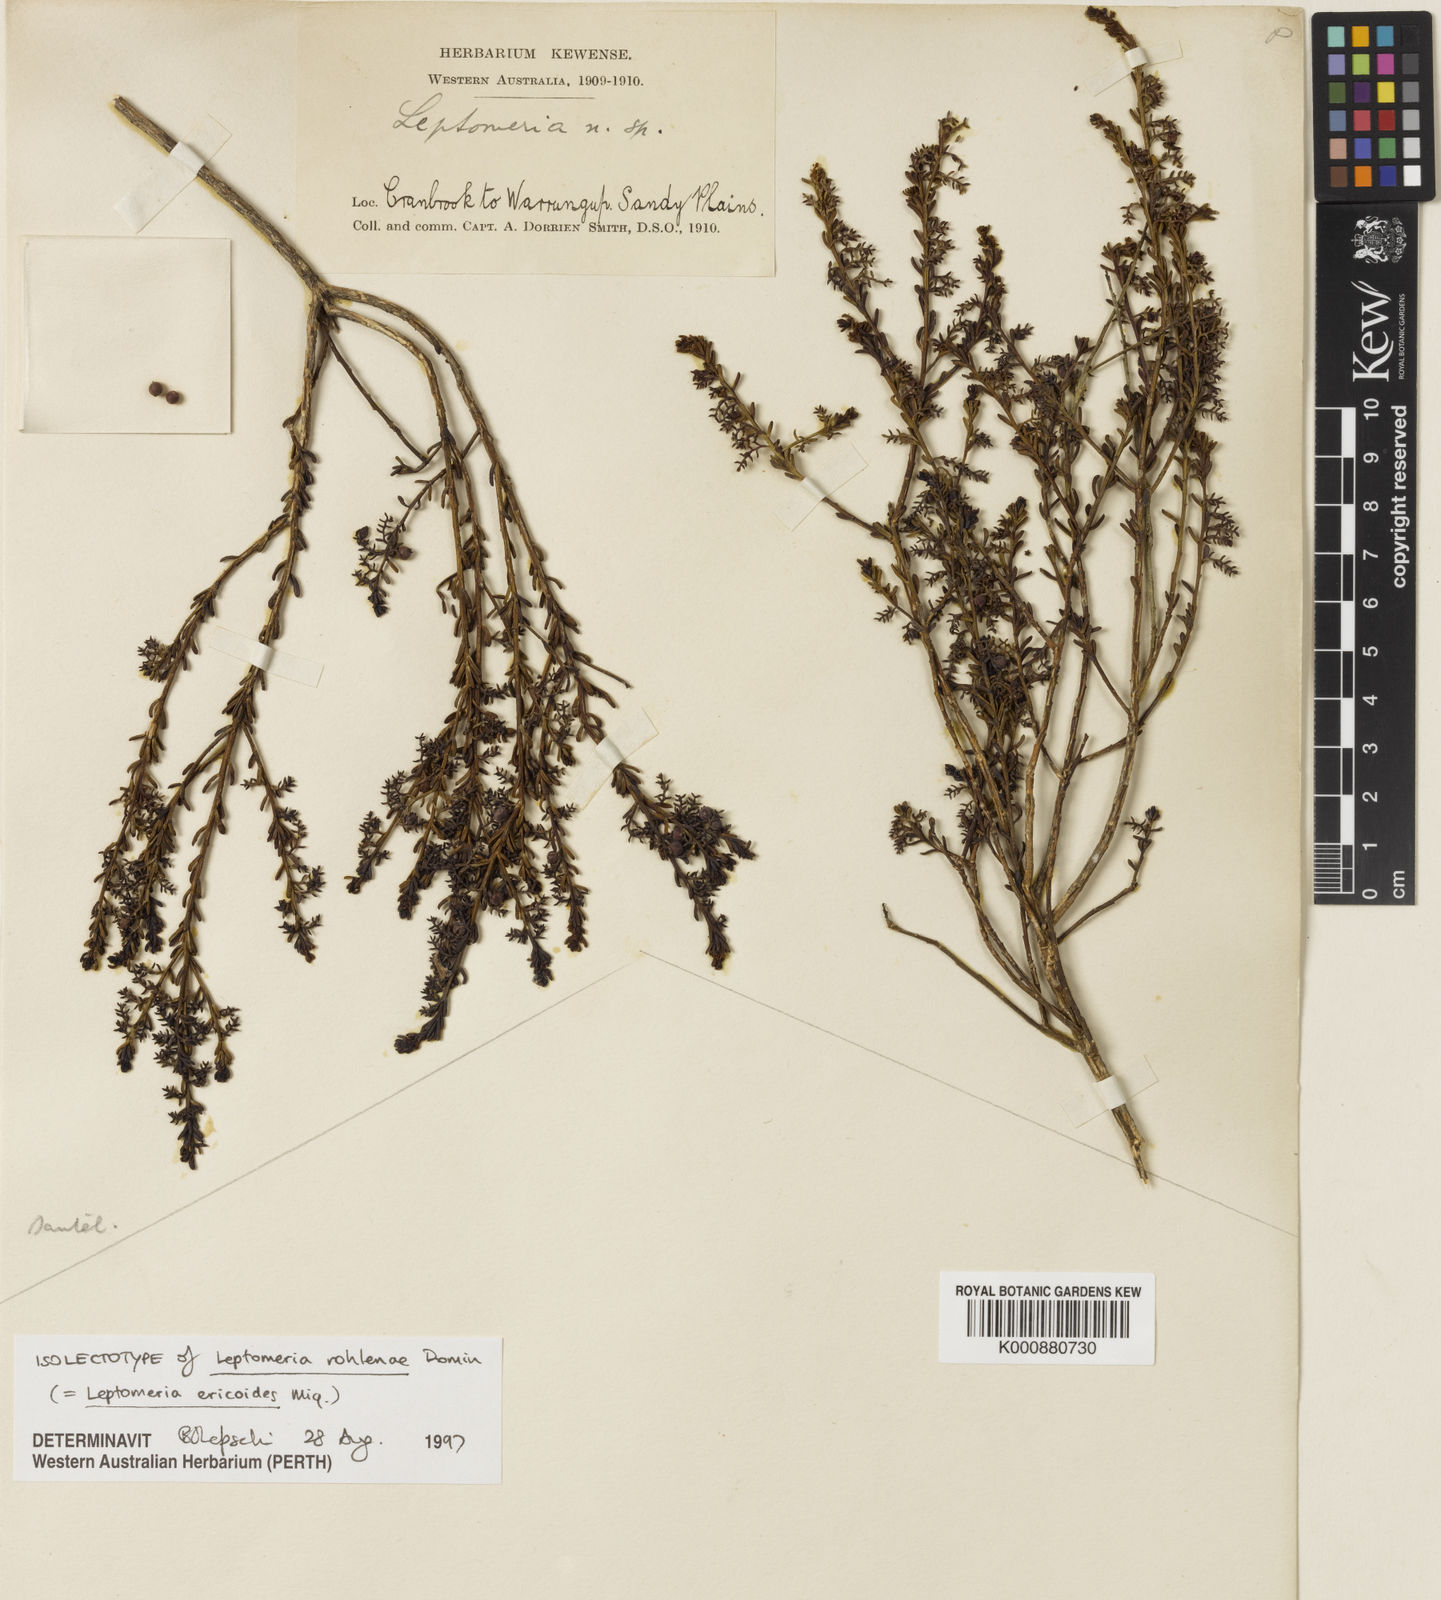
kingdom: Plantae
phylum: Tracheophyta
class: Magnoliopsida
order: Santalales
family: Amphorogynaceae
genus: Leptomeria
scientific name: Leptomeria ericoides
